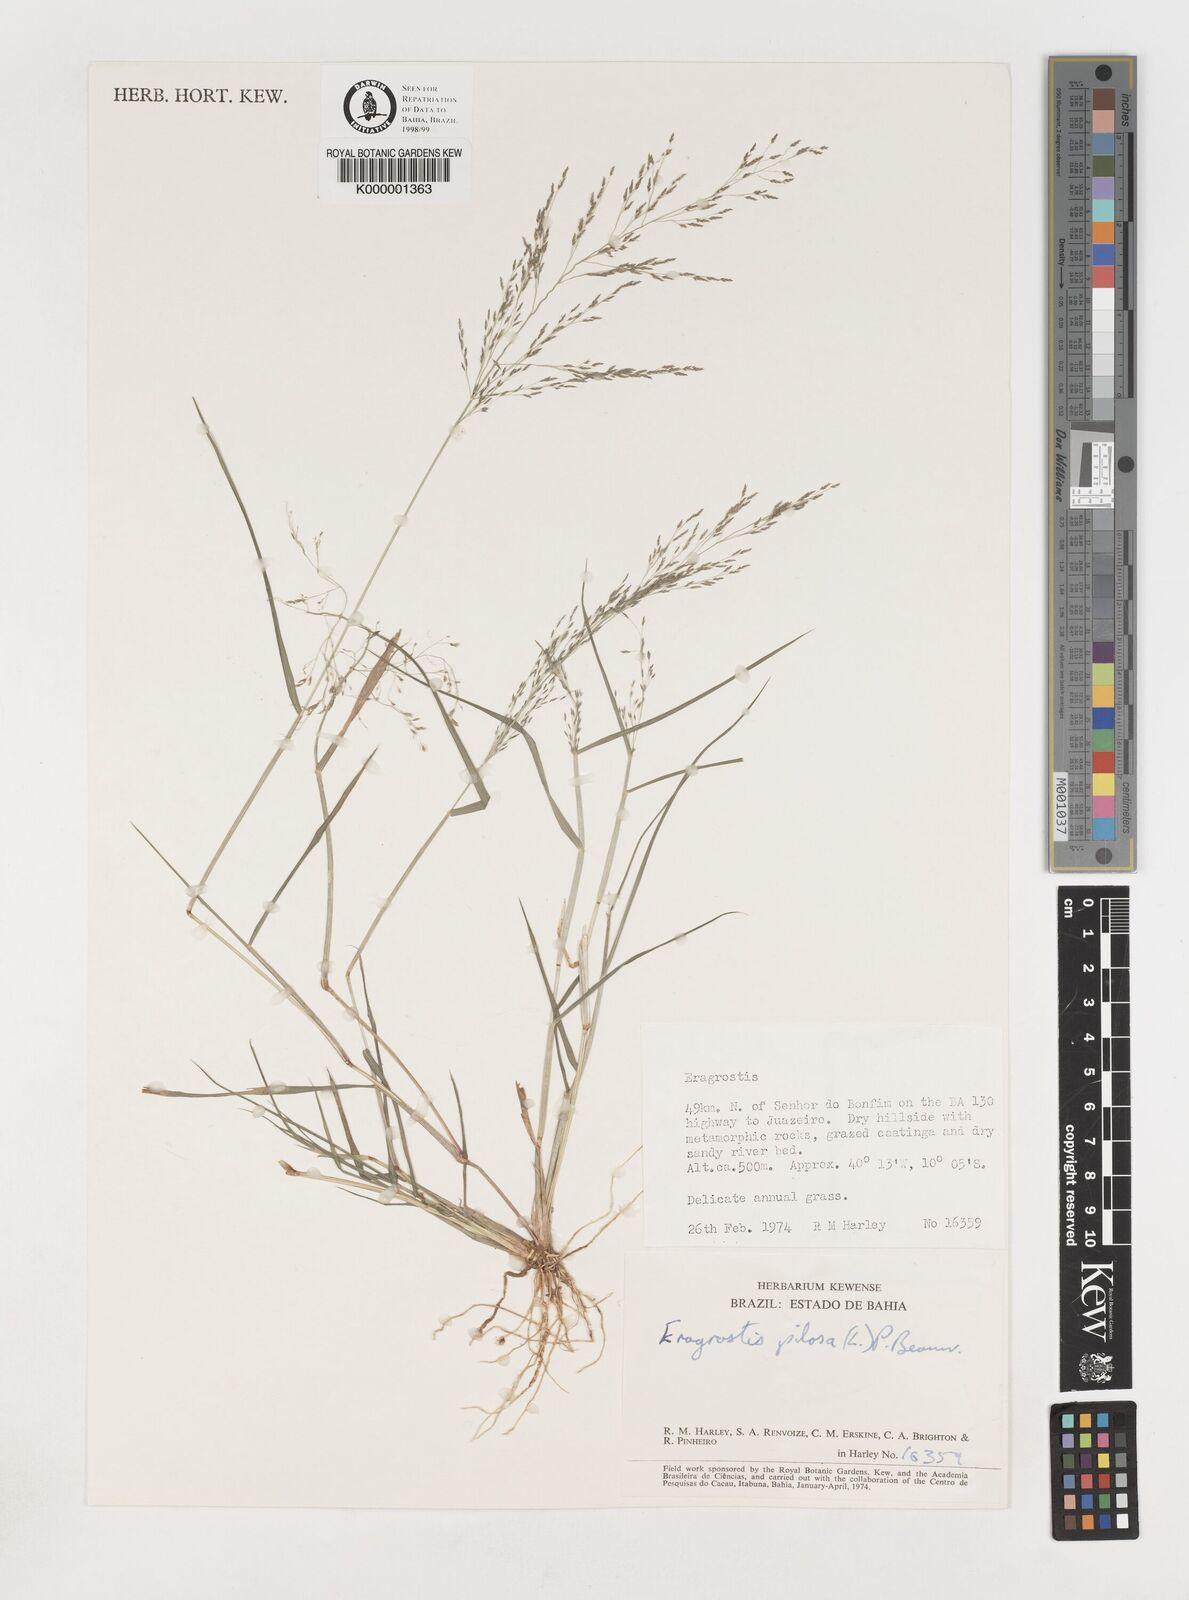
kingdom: Plantae
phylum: Tracheophyta
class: Liliopsida
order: Poales
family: Poaceae
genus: Eragrostis
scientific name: Eragrostis pilosa
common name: Indian lovegrass
